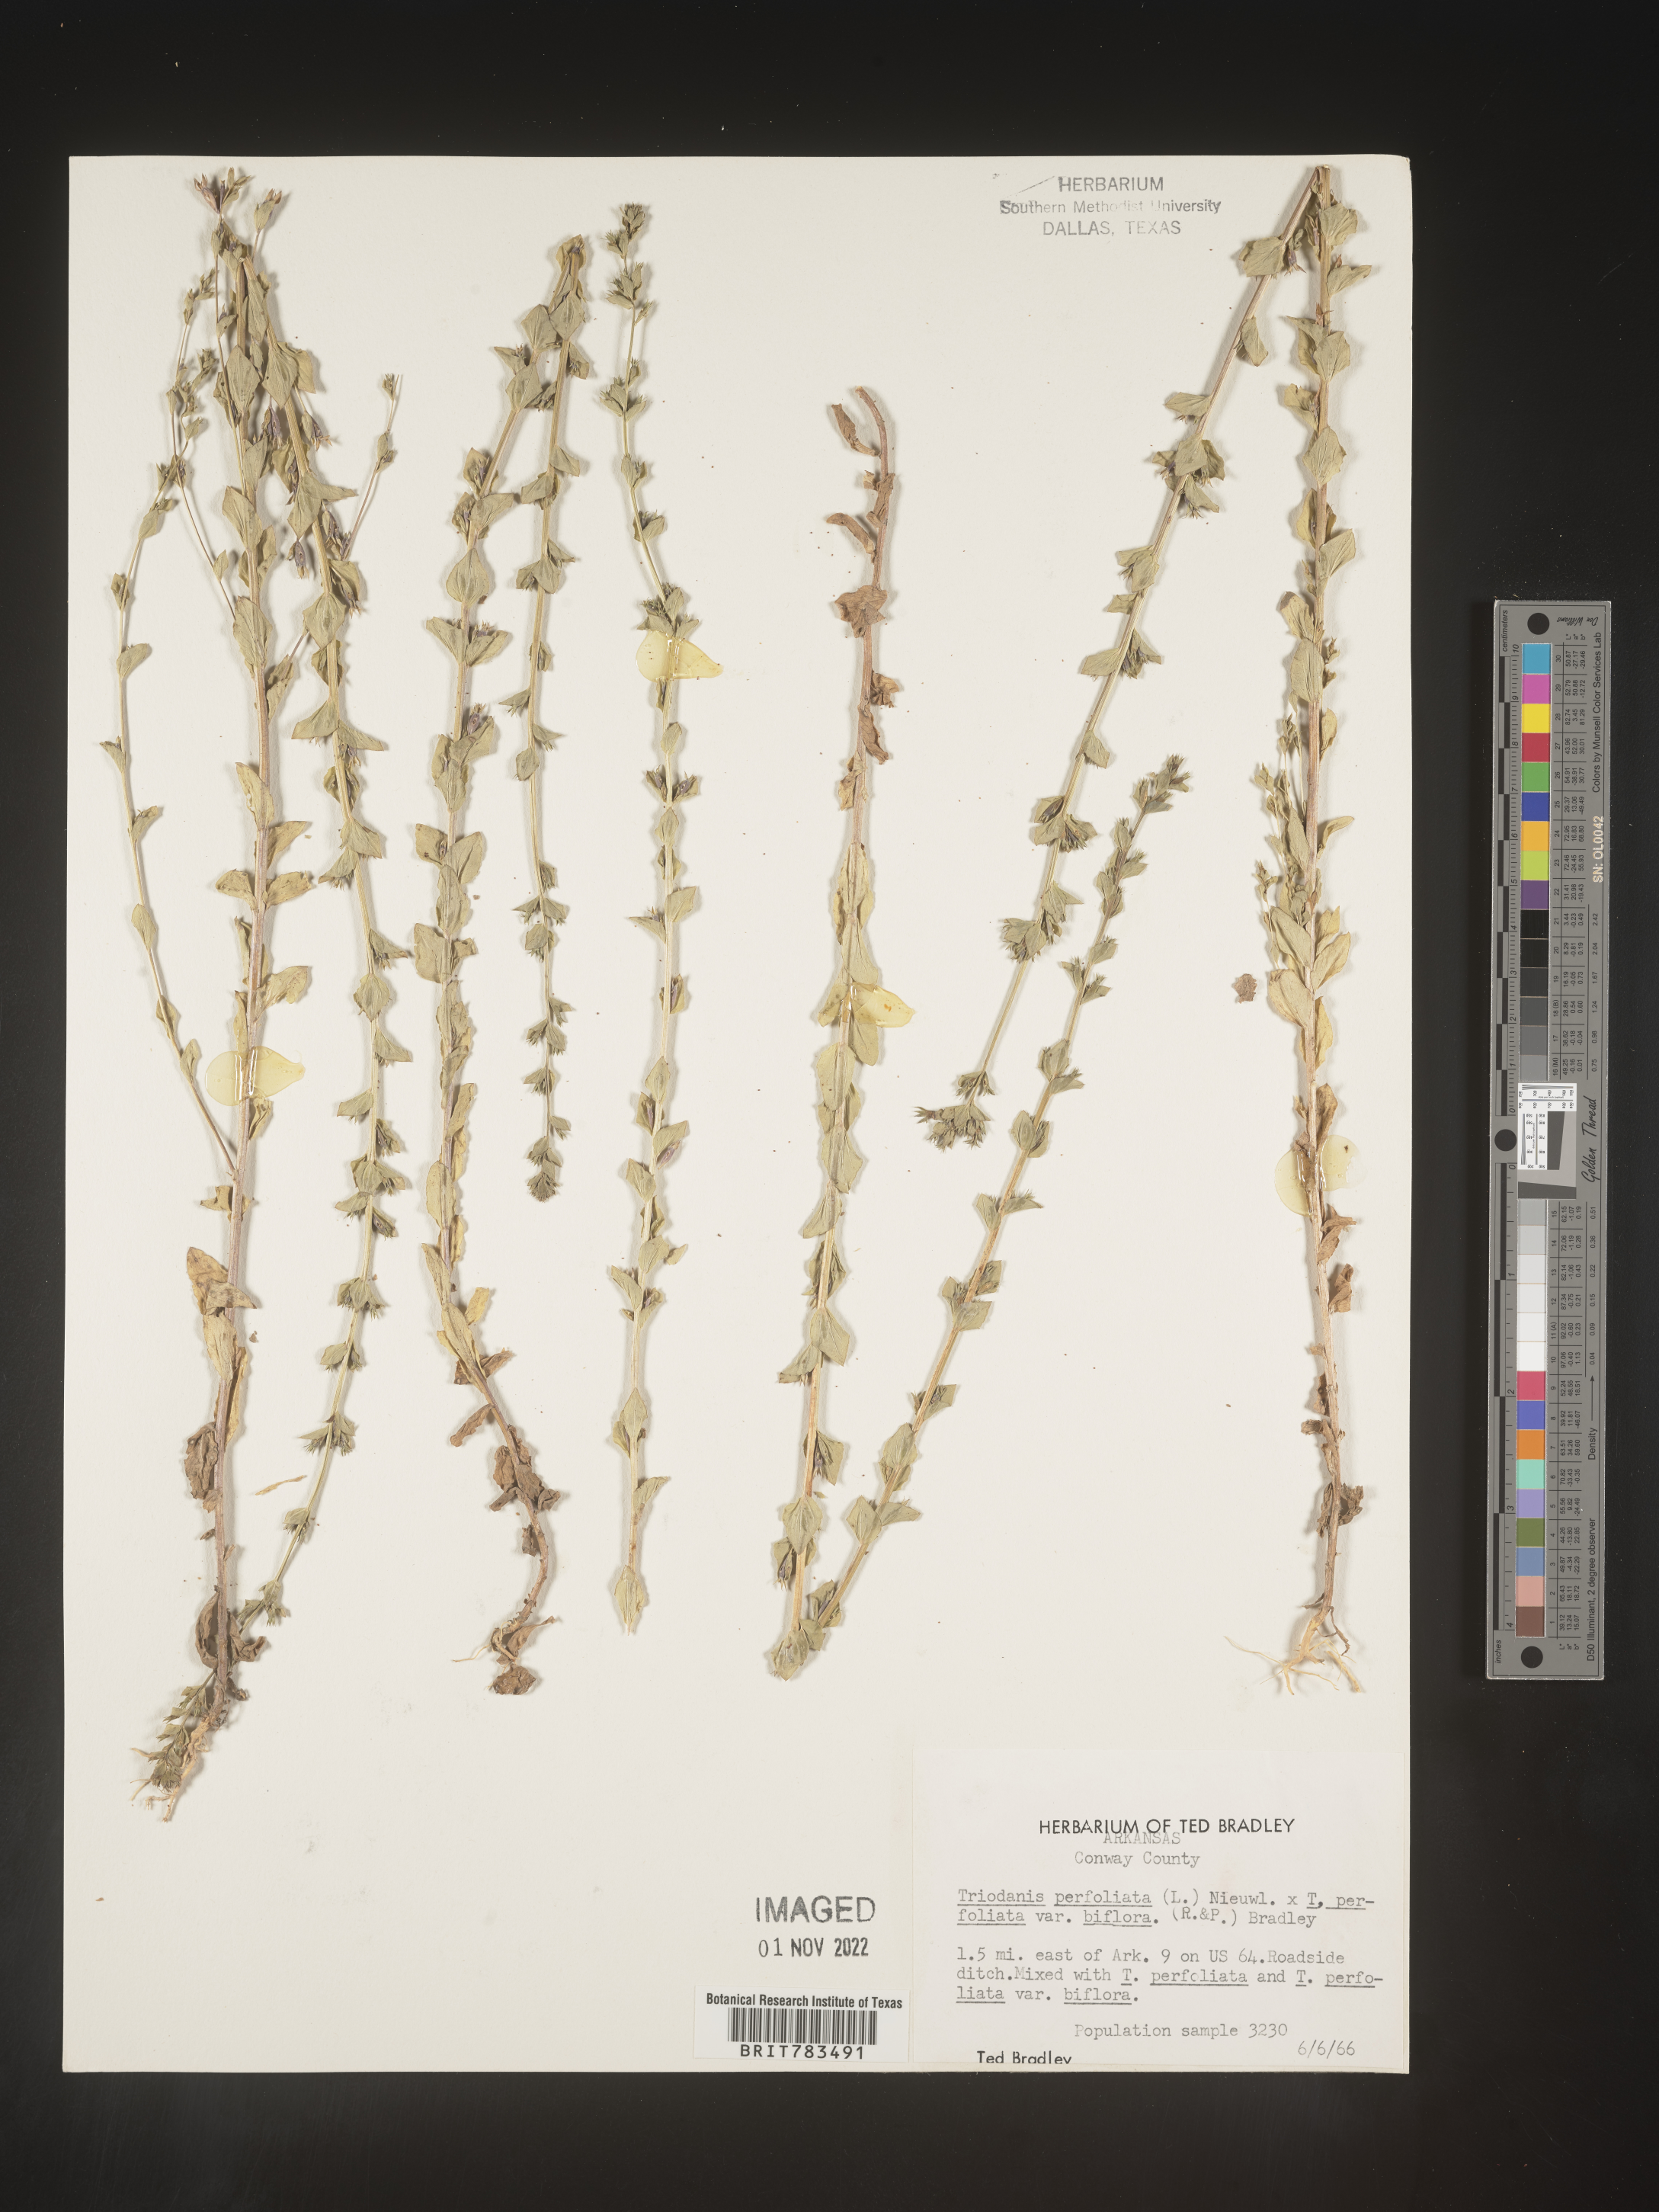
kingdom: Plantae
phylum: Tracheophyta
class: Magnoliopsida
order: Asterales
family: Campanulaceae
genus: Triodanis
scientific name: Triodanis perfoliata
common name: Clasping venus' looking-glass
